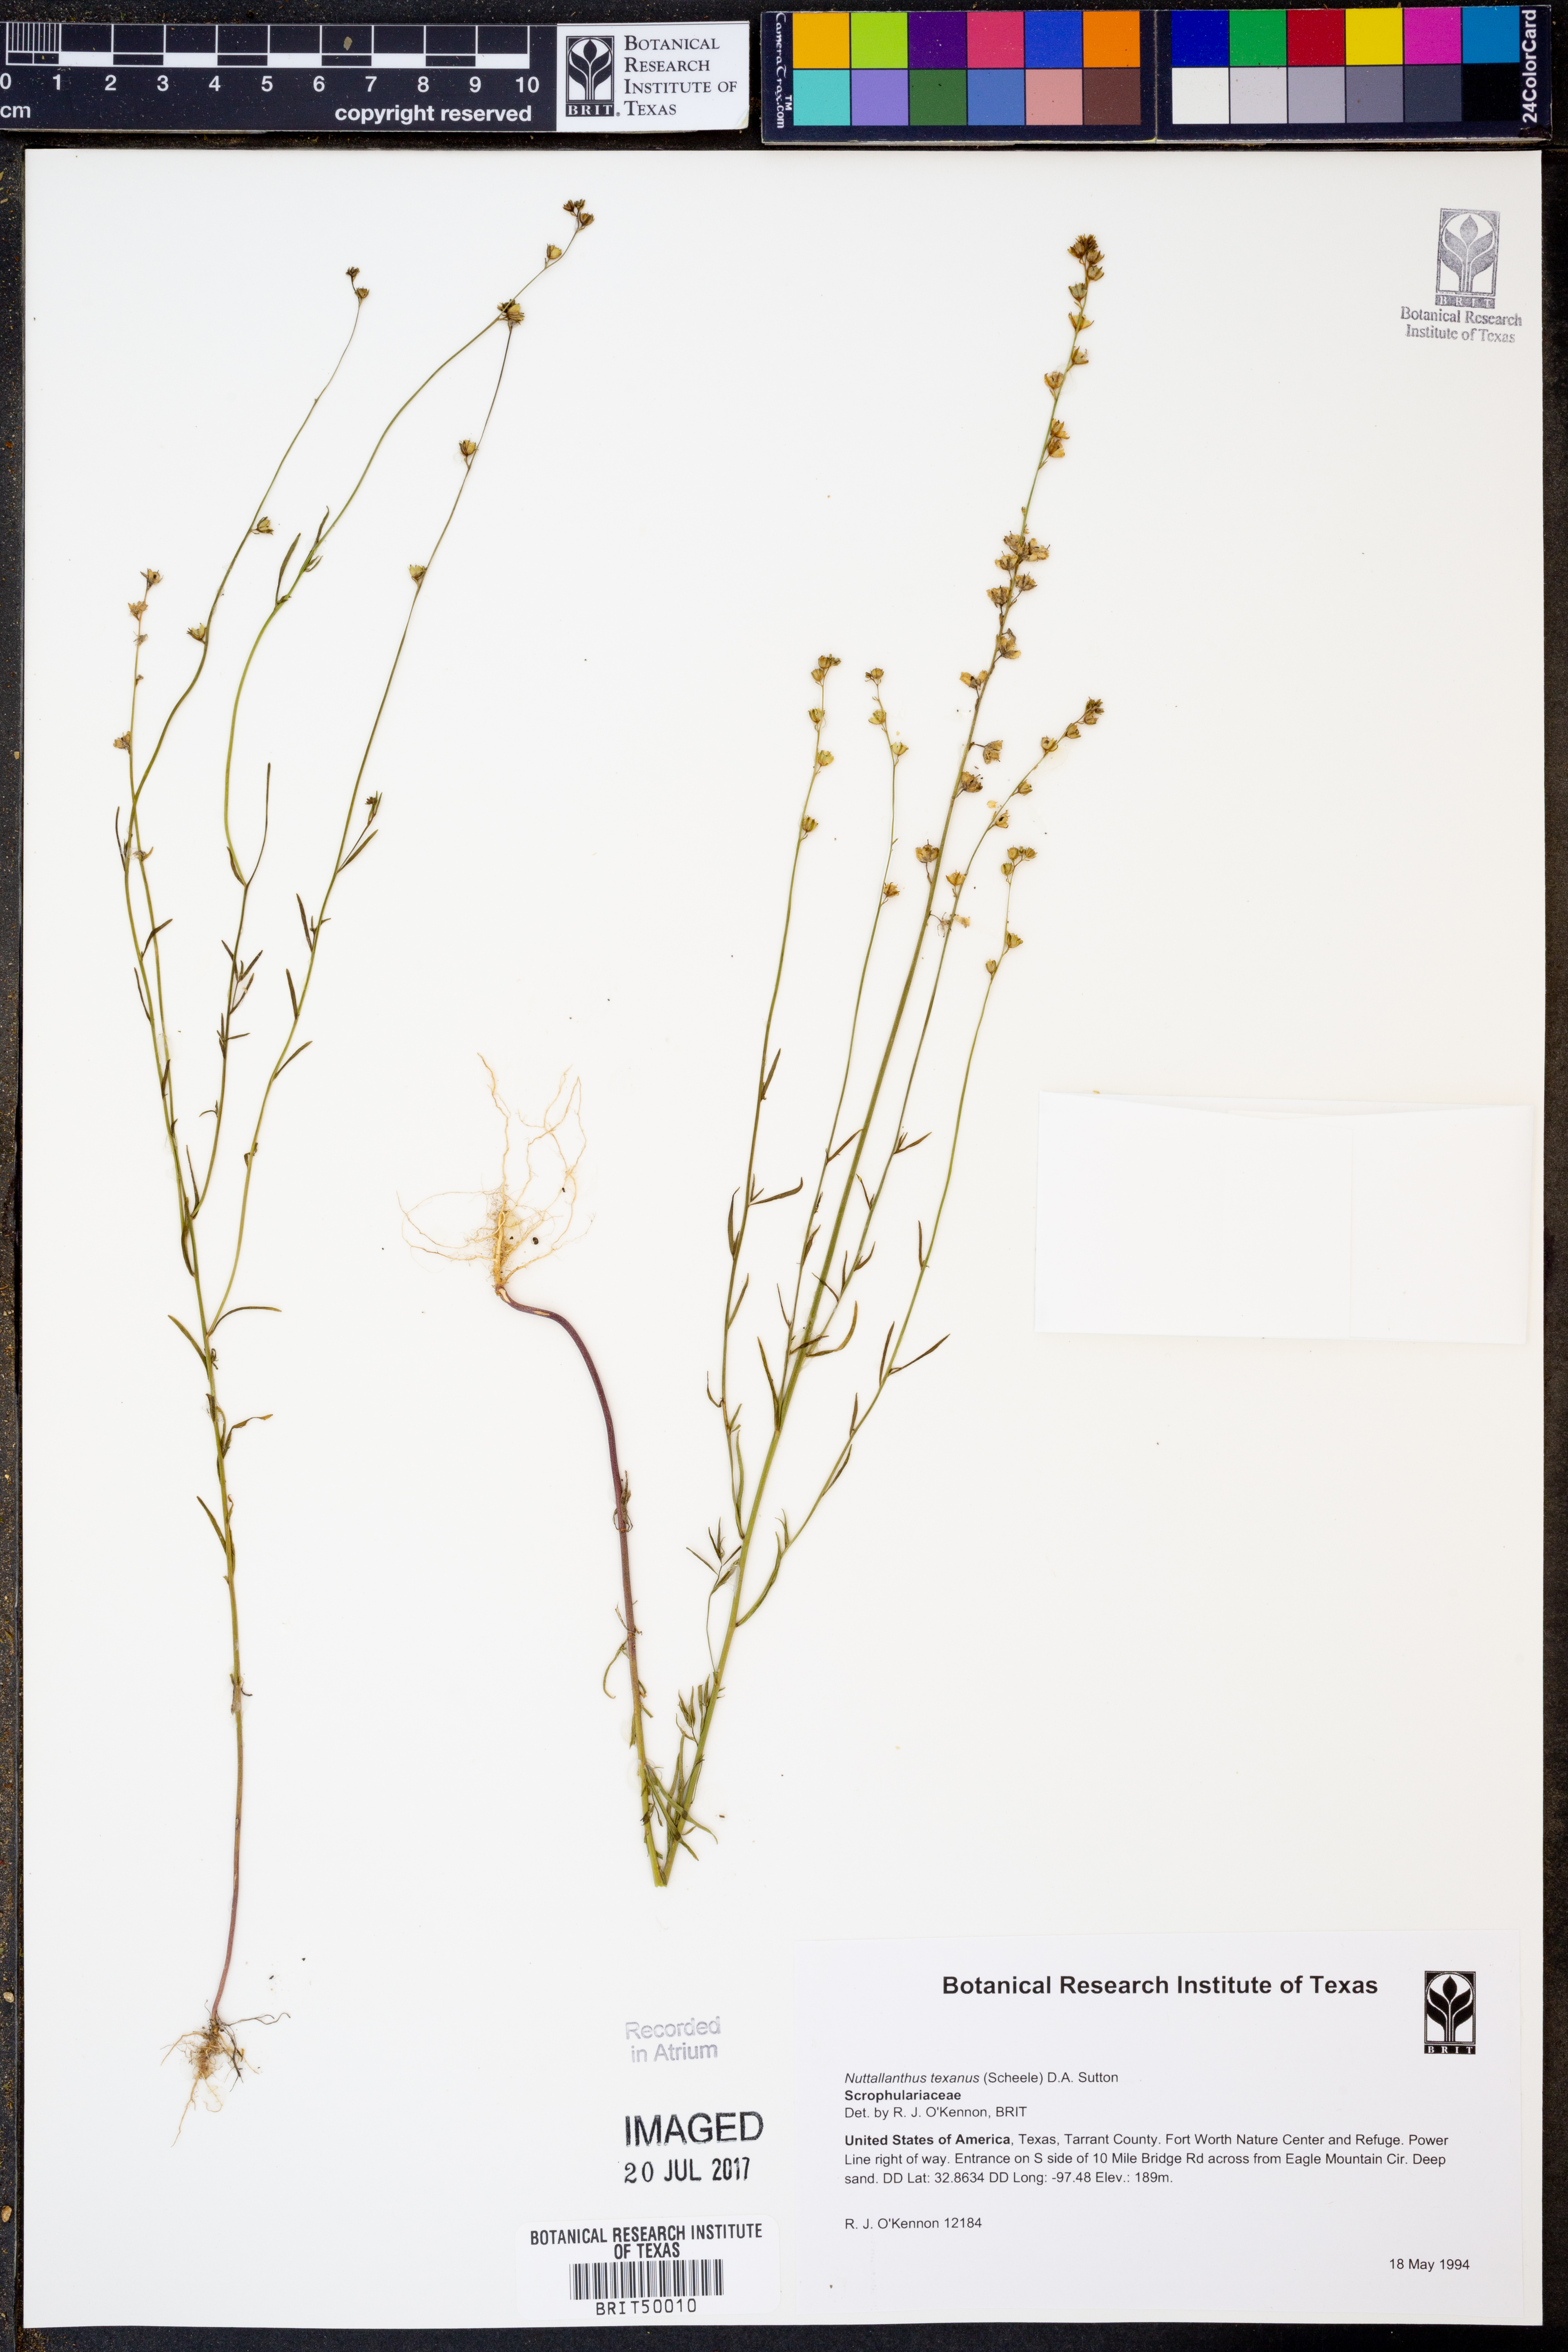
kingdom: Plantae
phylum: Tracheophyta
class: Magnoliopsida
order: Lamiales
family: Plantaginaceae
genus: Nuttallanthus
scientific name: Nuttallanthus texanus
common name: Texas toadflax
